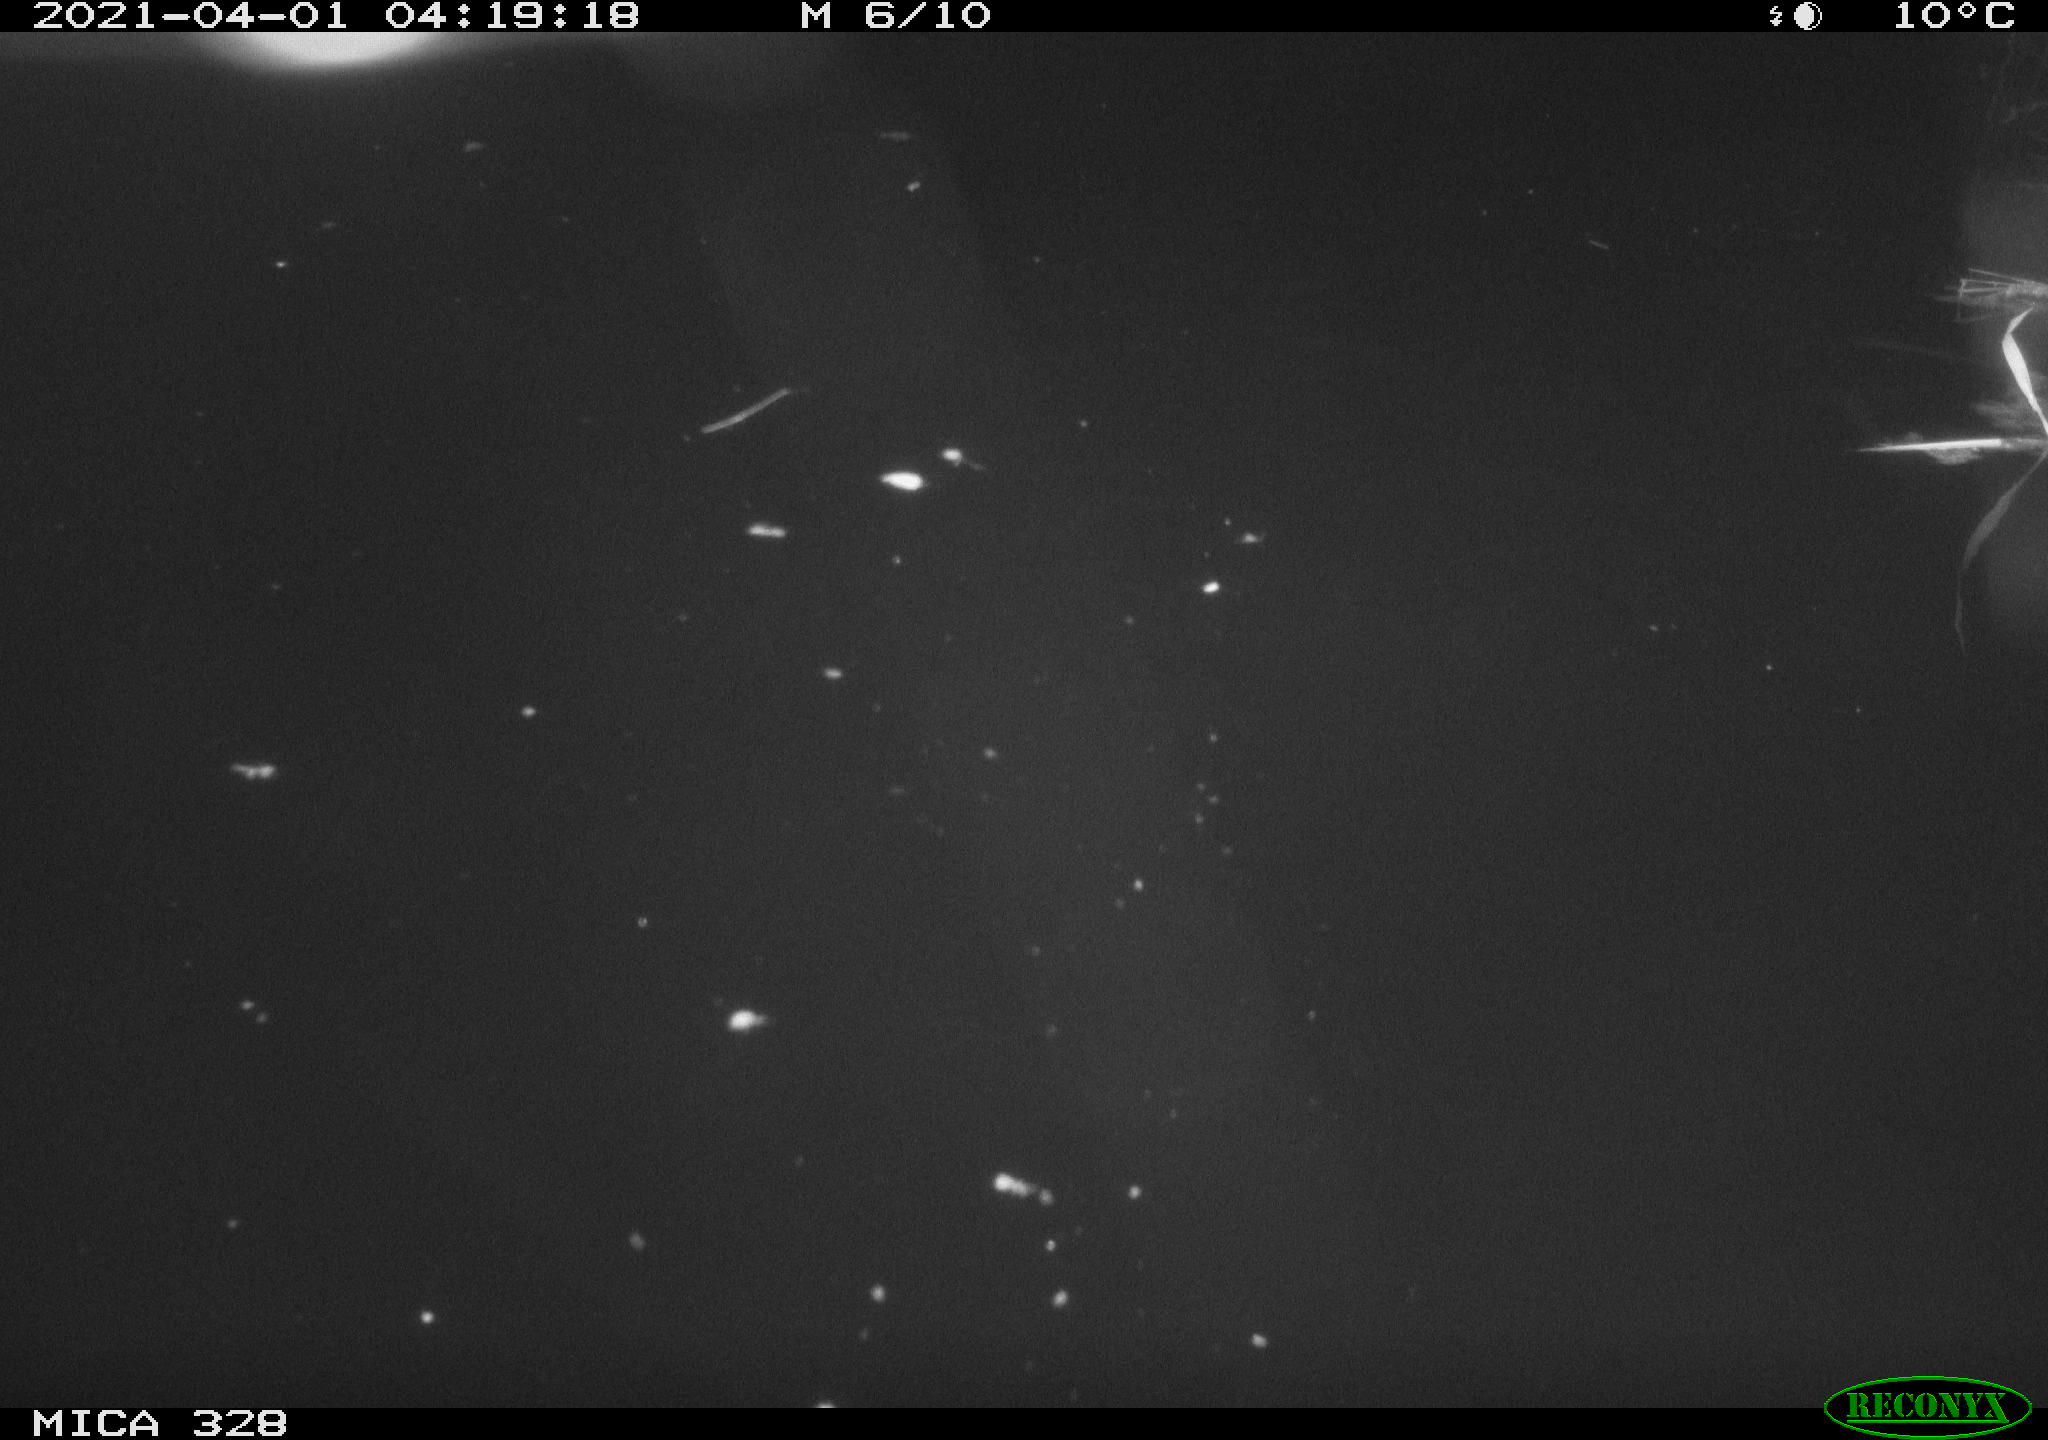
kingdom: Animalia
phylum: Chordata
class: Aves
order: Anseriformes
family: Anatidae
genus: Anas
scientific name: Anas platyrhynchos
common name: Mallard
